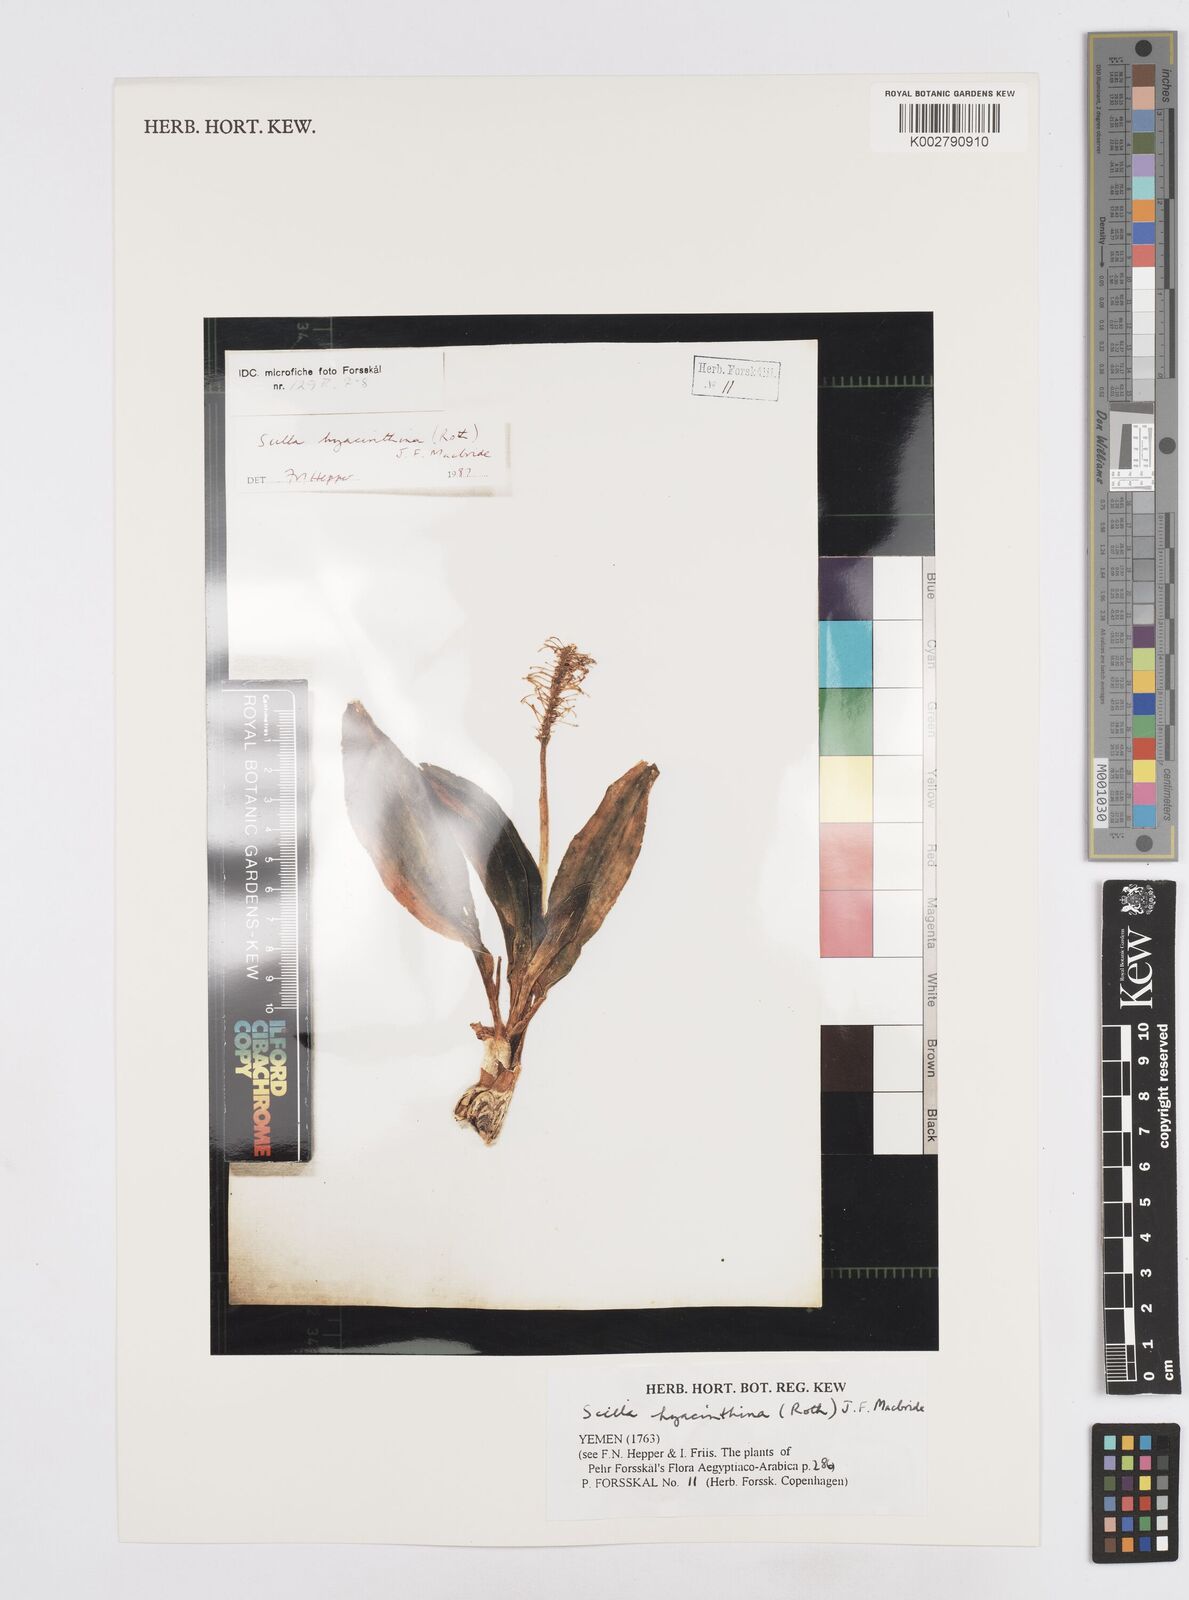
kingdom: Plantae
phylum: Tracheophyta
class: Liliopsida
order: Asparagales
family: Asparagaceae
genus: Ledebouria
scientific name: Ledebouria revoluta
